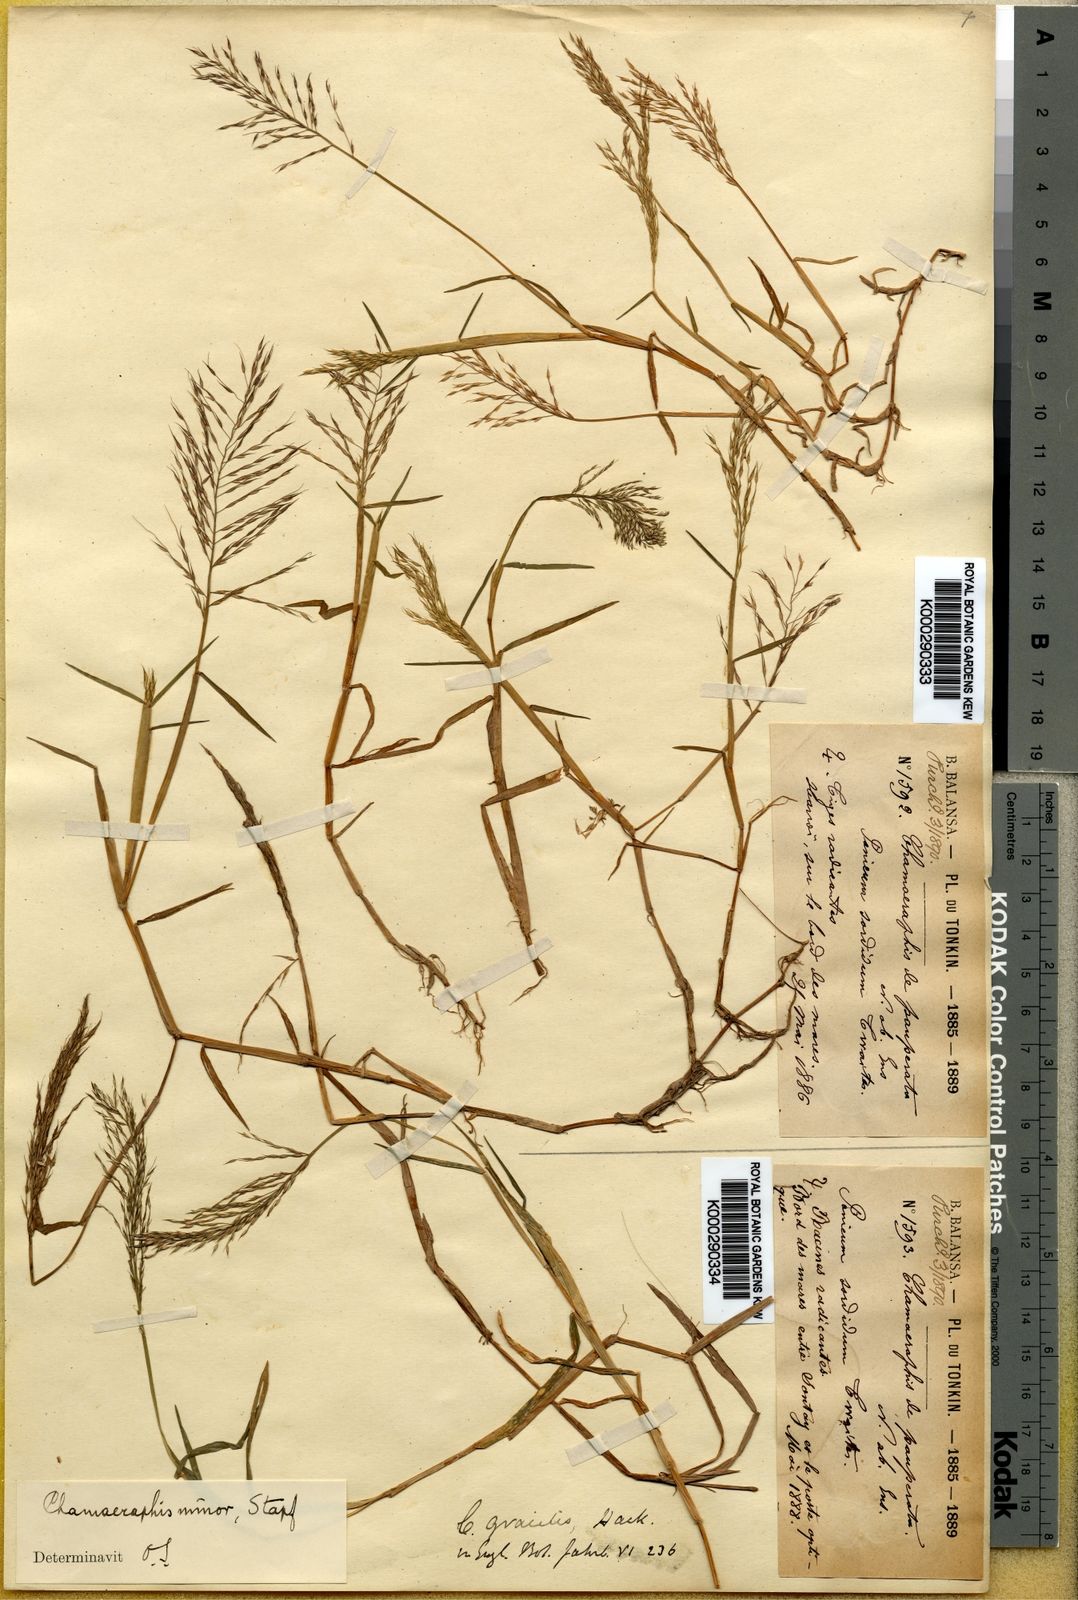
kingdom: Plantae
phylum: Tracheophyta
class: Liliopsida
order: Poales
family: Poaceae
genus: Pseudoraphis
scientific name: Pseudoraphis minuta
